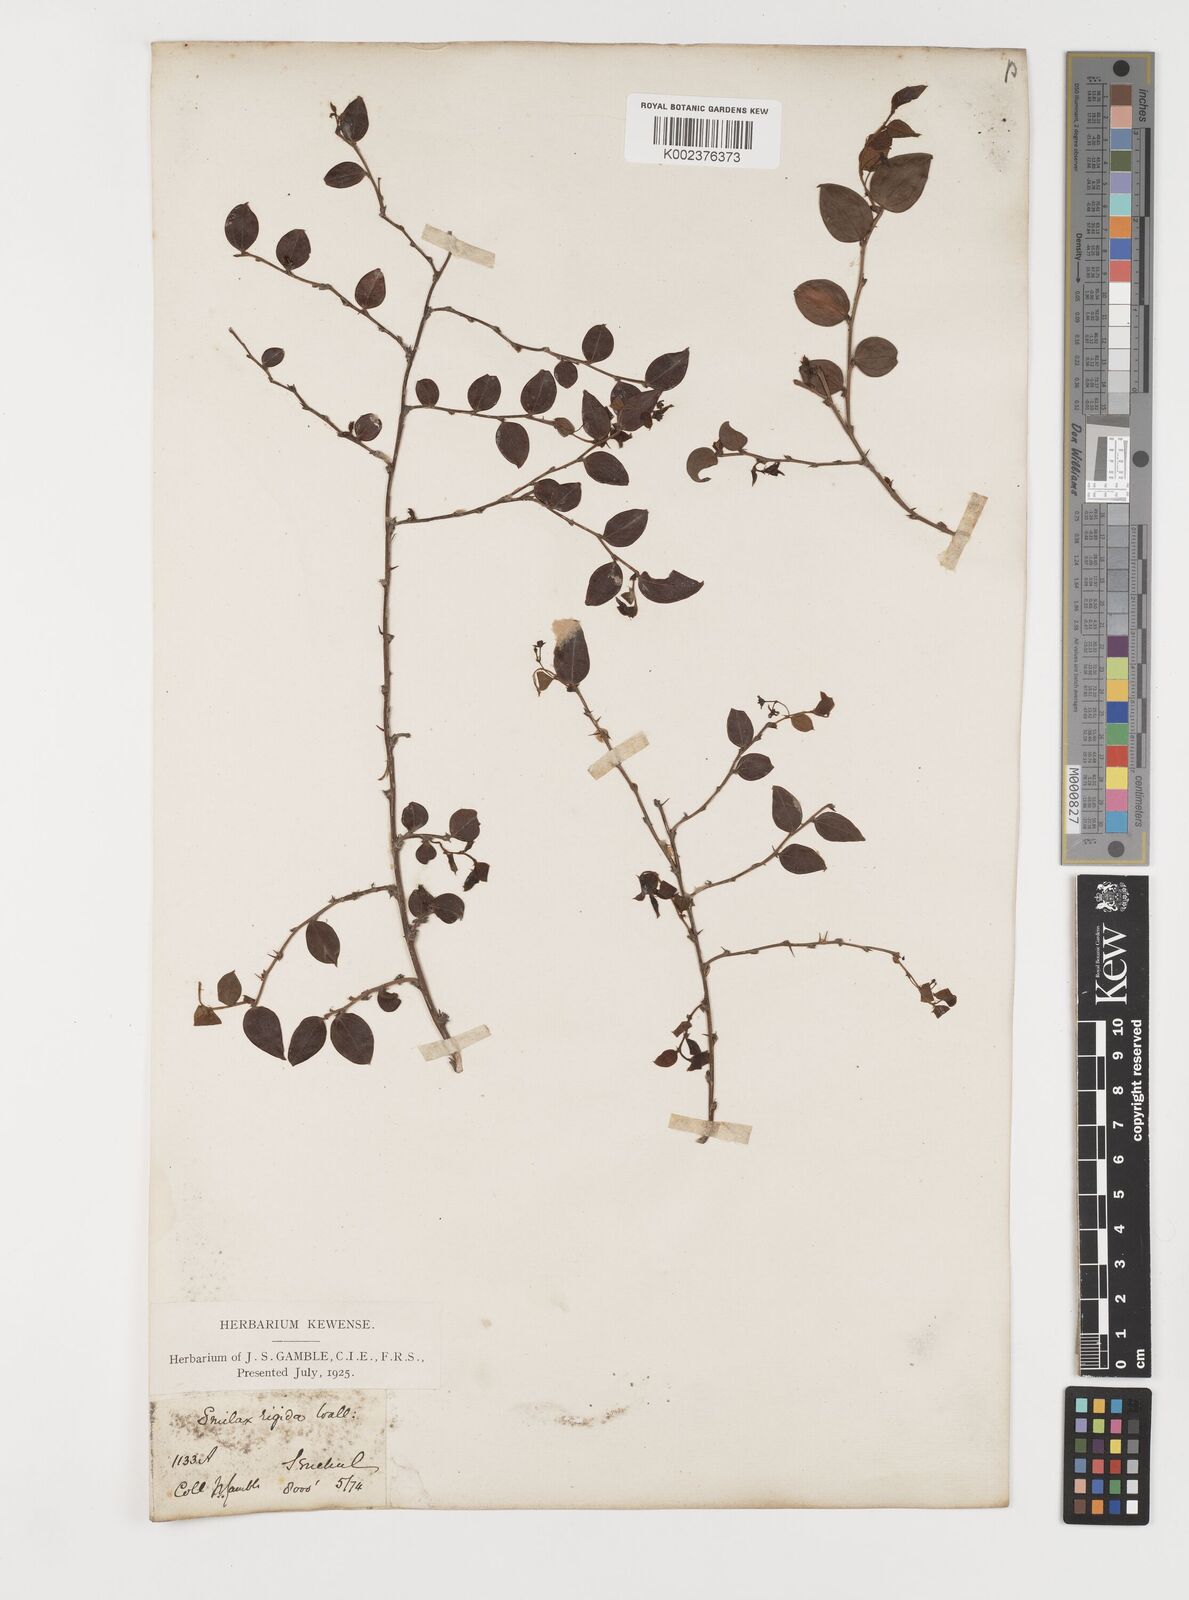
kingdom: Plantae
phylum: Tracheophyta
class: Liliopsida
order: Liliales
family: Smilacaceae
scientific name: Smilacaceae
